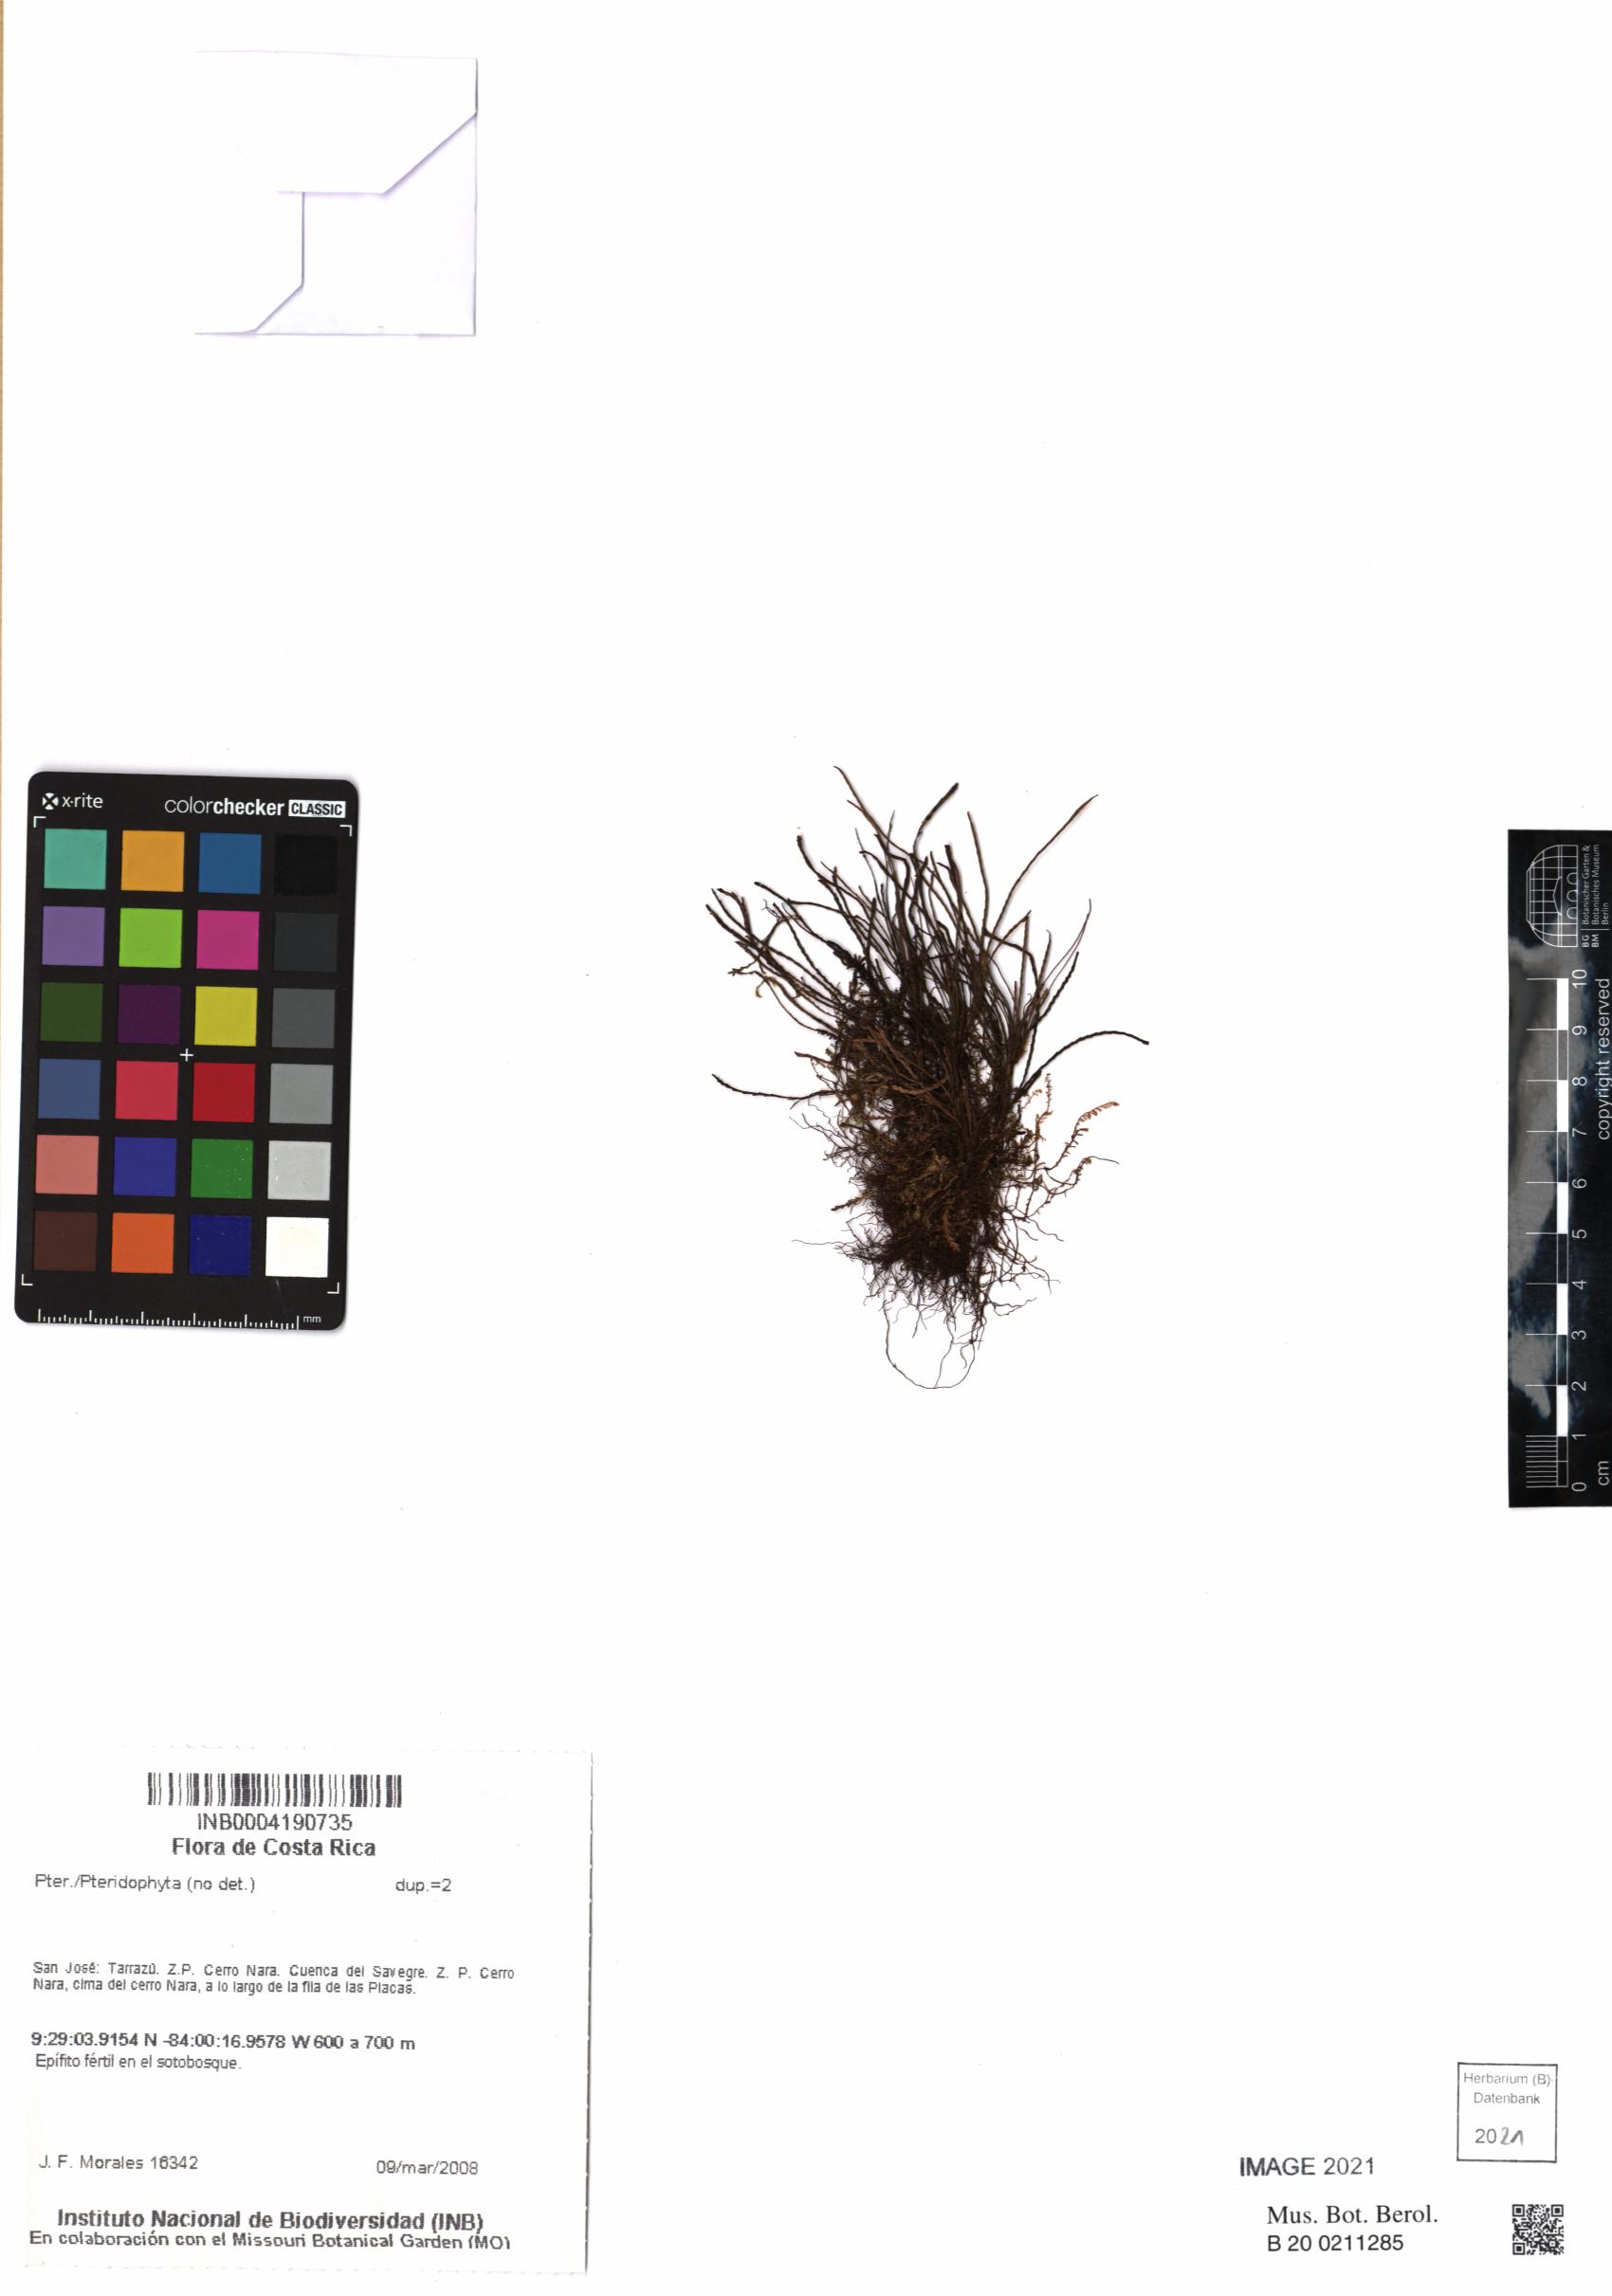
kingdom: Plantae
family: Pteridophyta
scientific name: Pteridophyta
